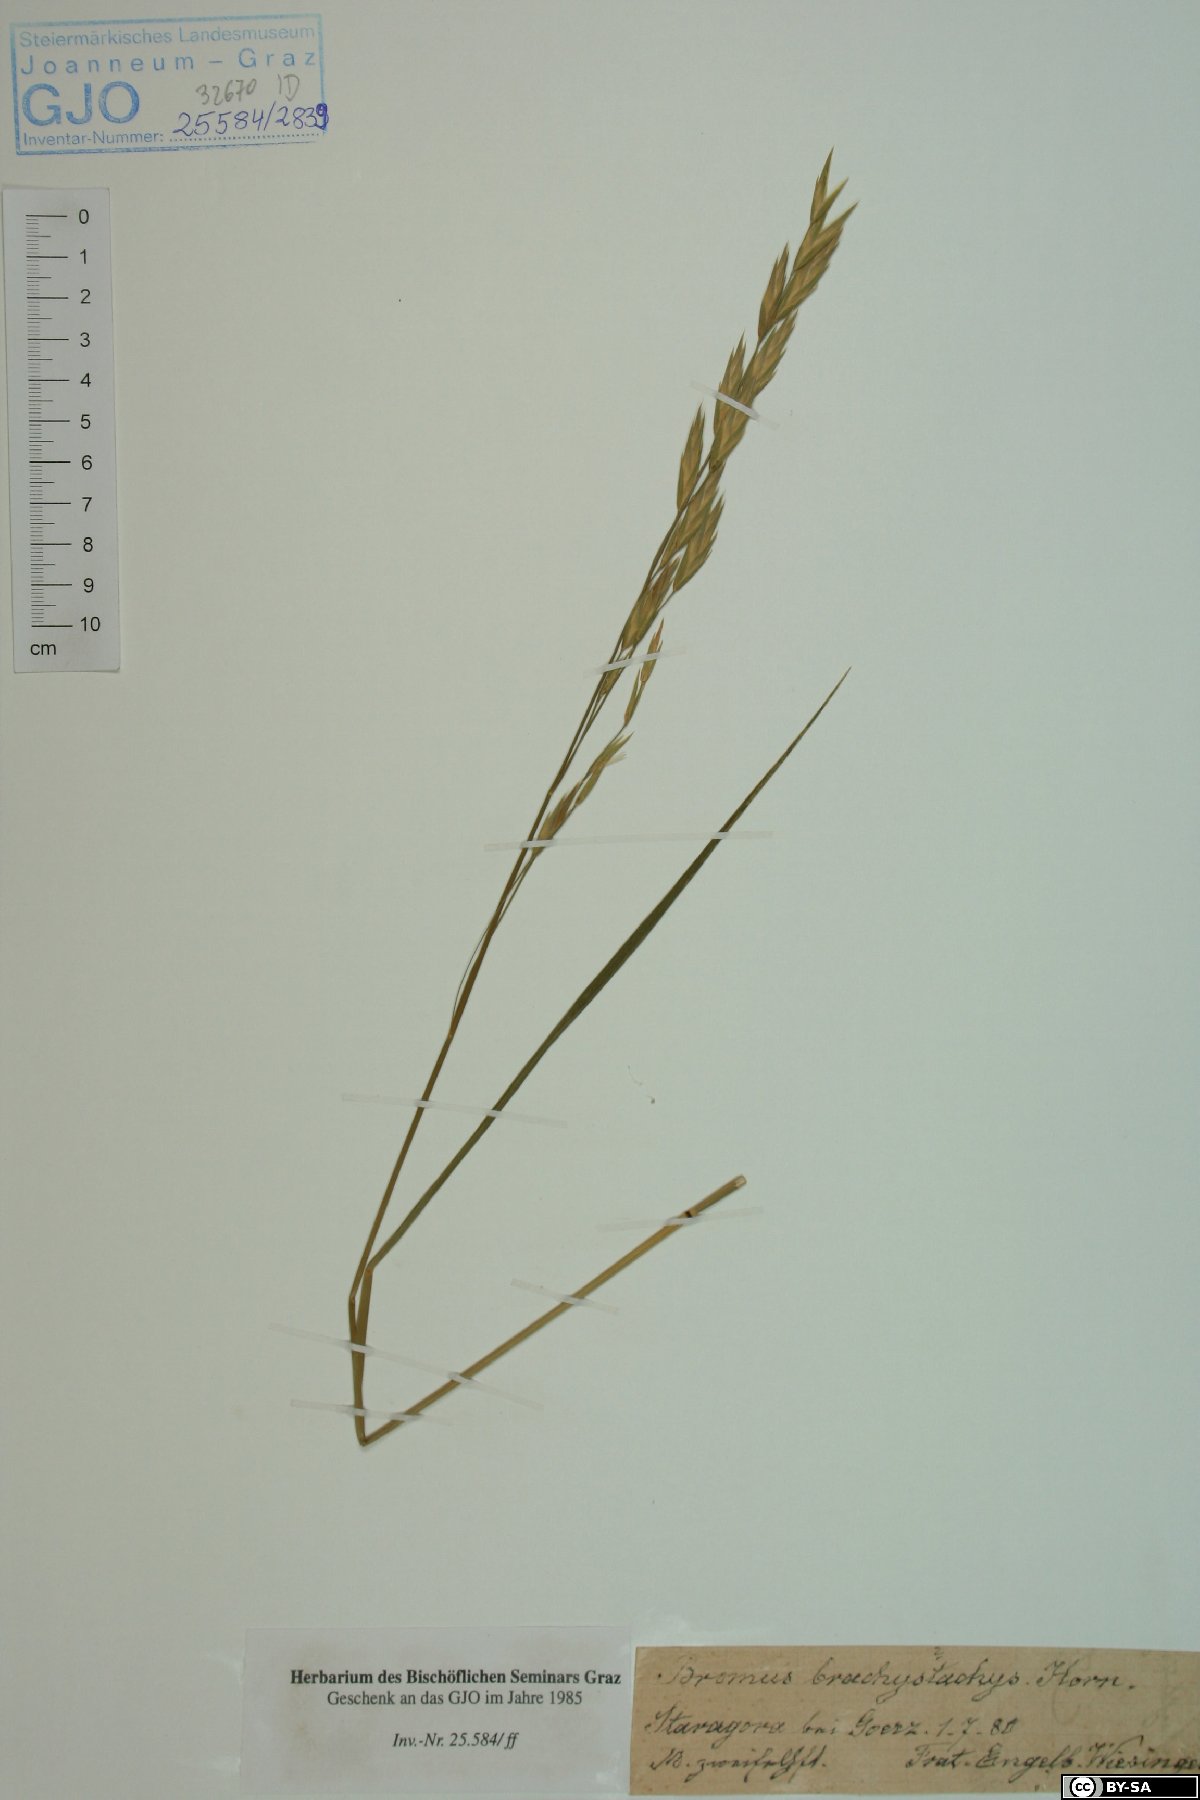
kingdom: Plantae
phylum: Tracheophyta
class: Liliopsida
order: Poales
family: Poaceae
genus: Bromus
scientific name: Bromus brachystachys
